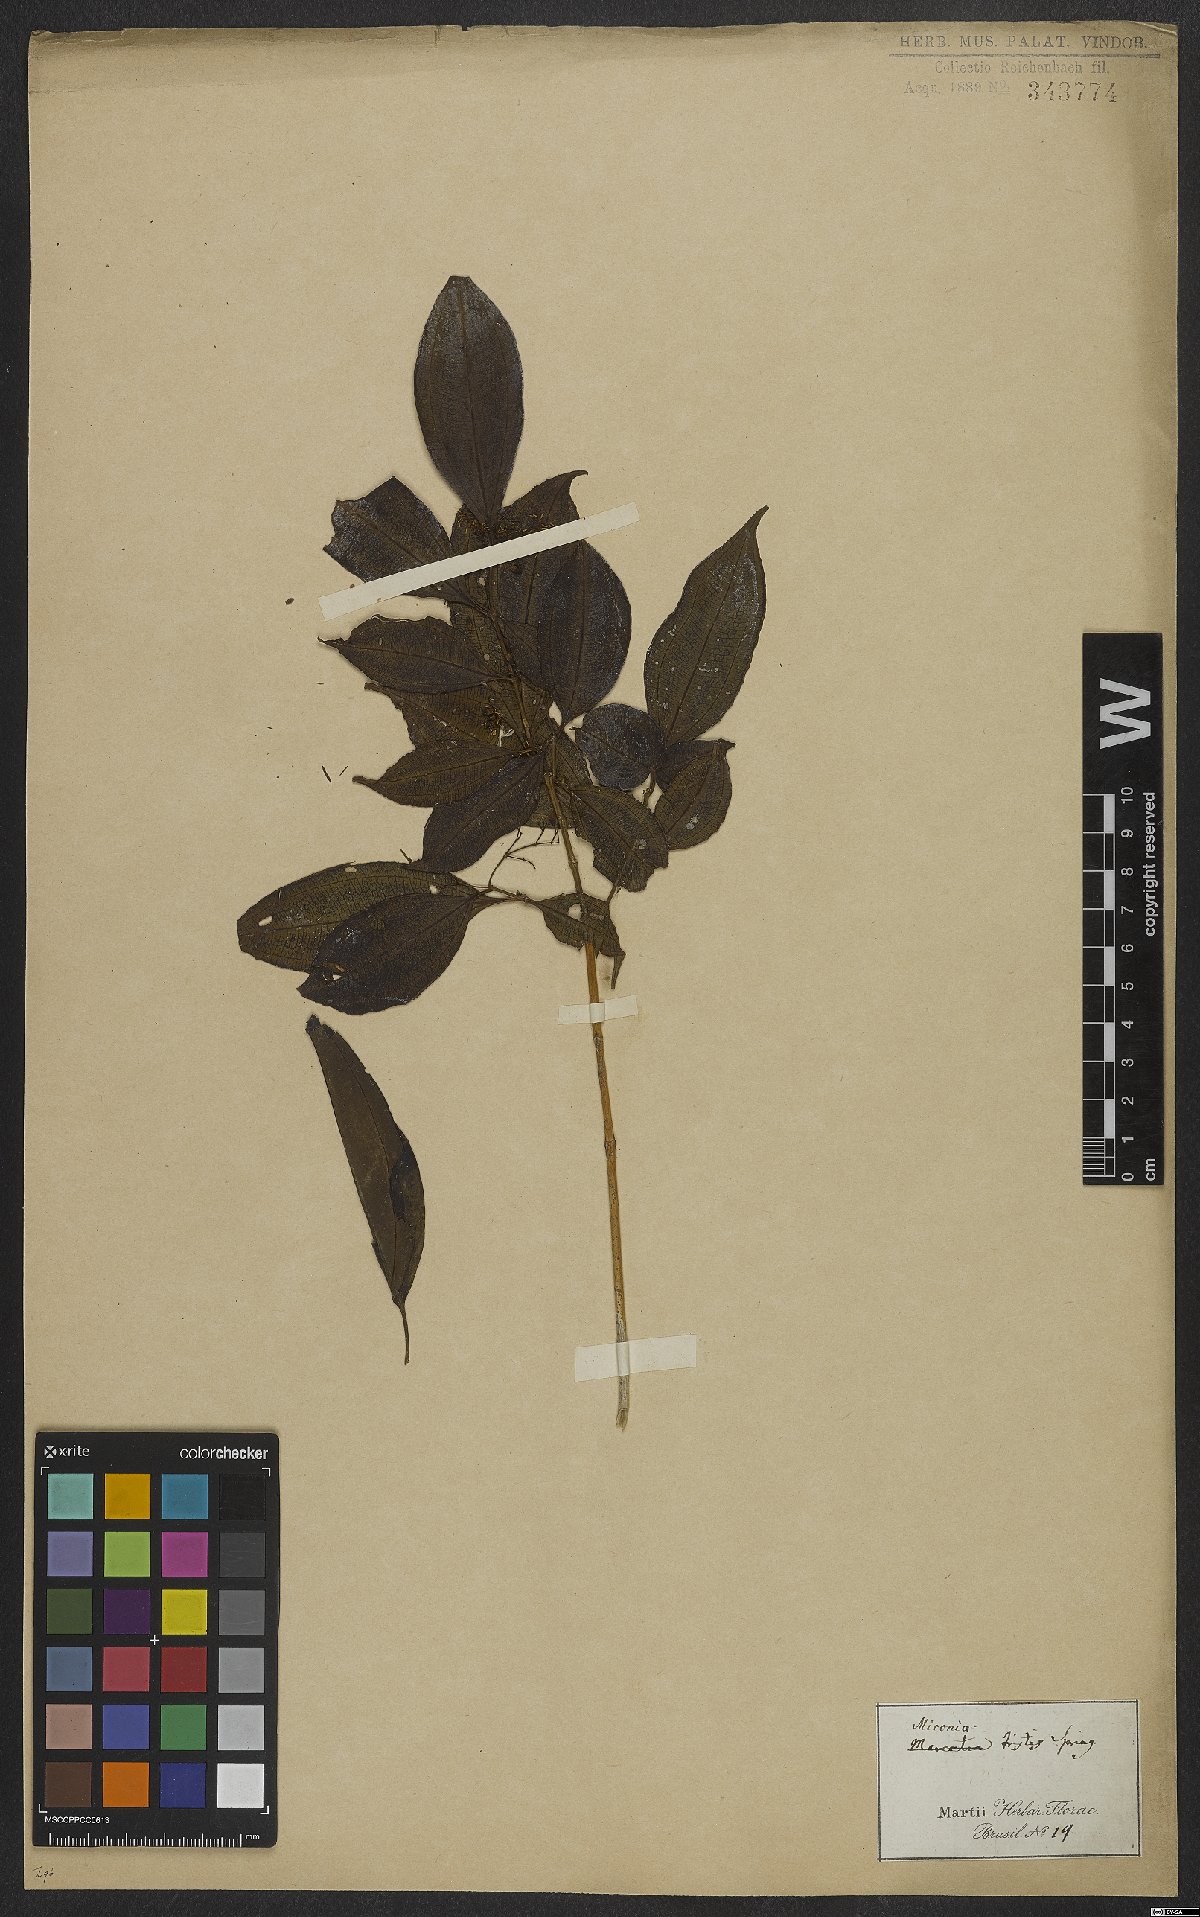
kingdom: Plantae
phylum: Tracheophyta
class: Magnoliopsida
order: Myrtales
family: Melastomataceae
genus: Miconia
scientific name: Miconia tristis
